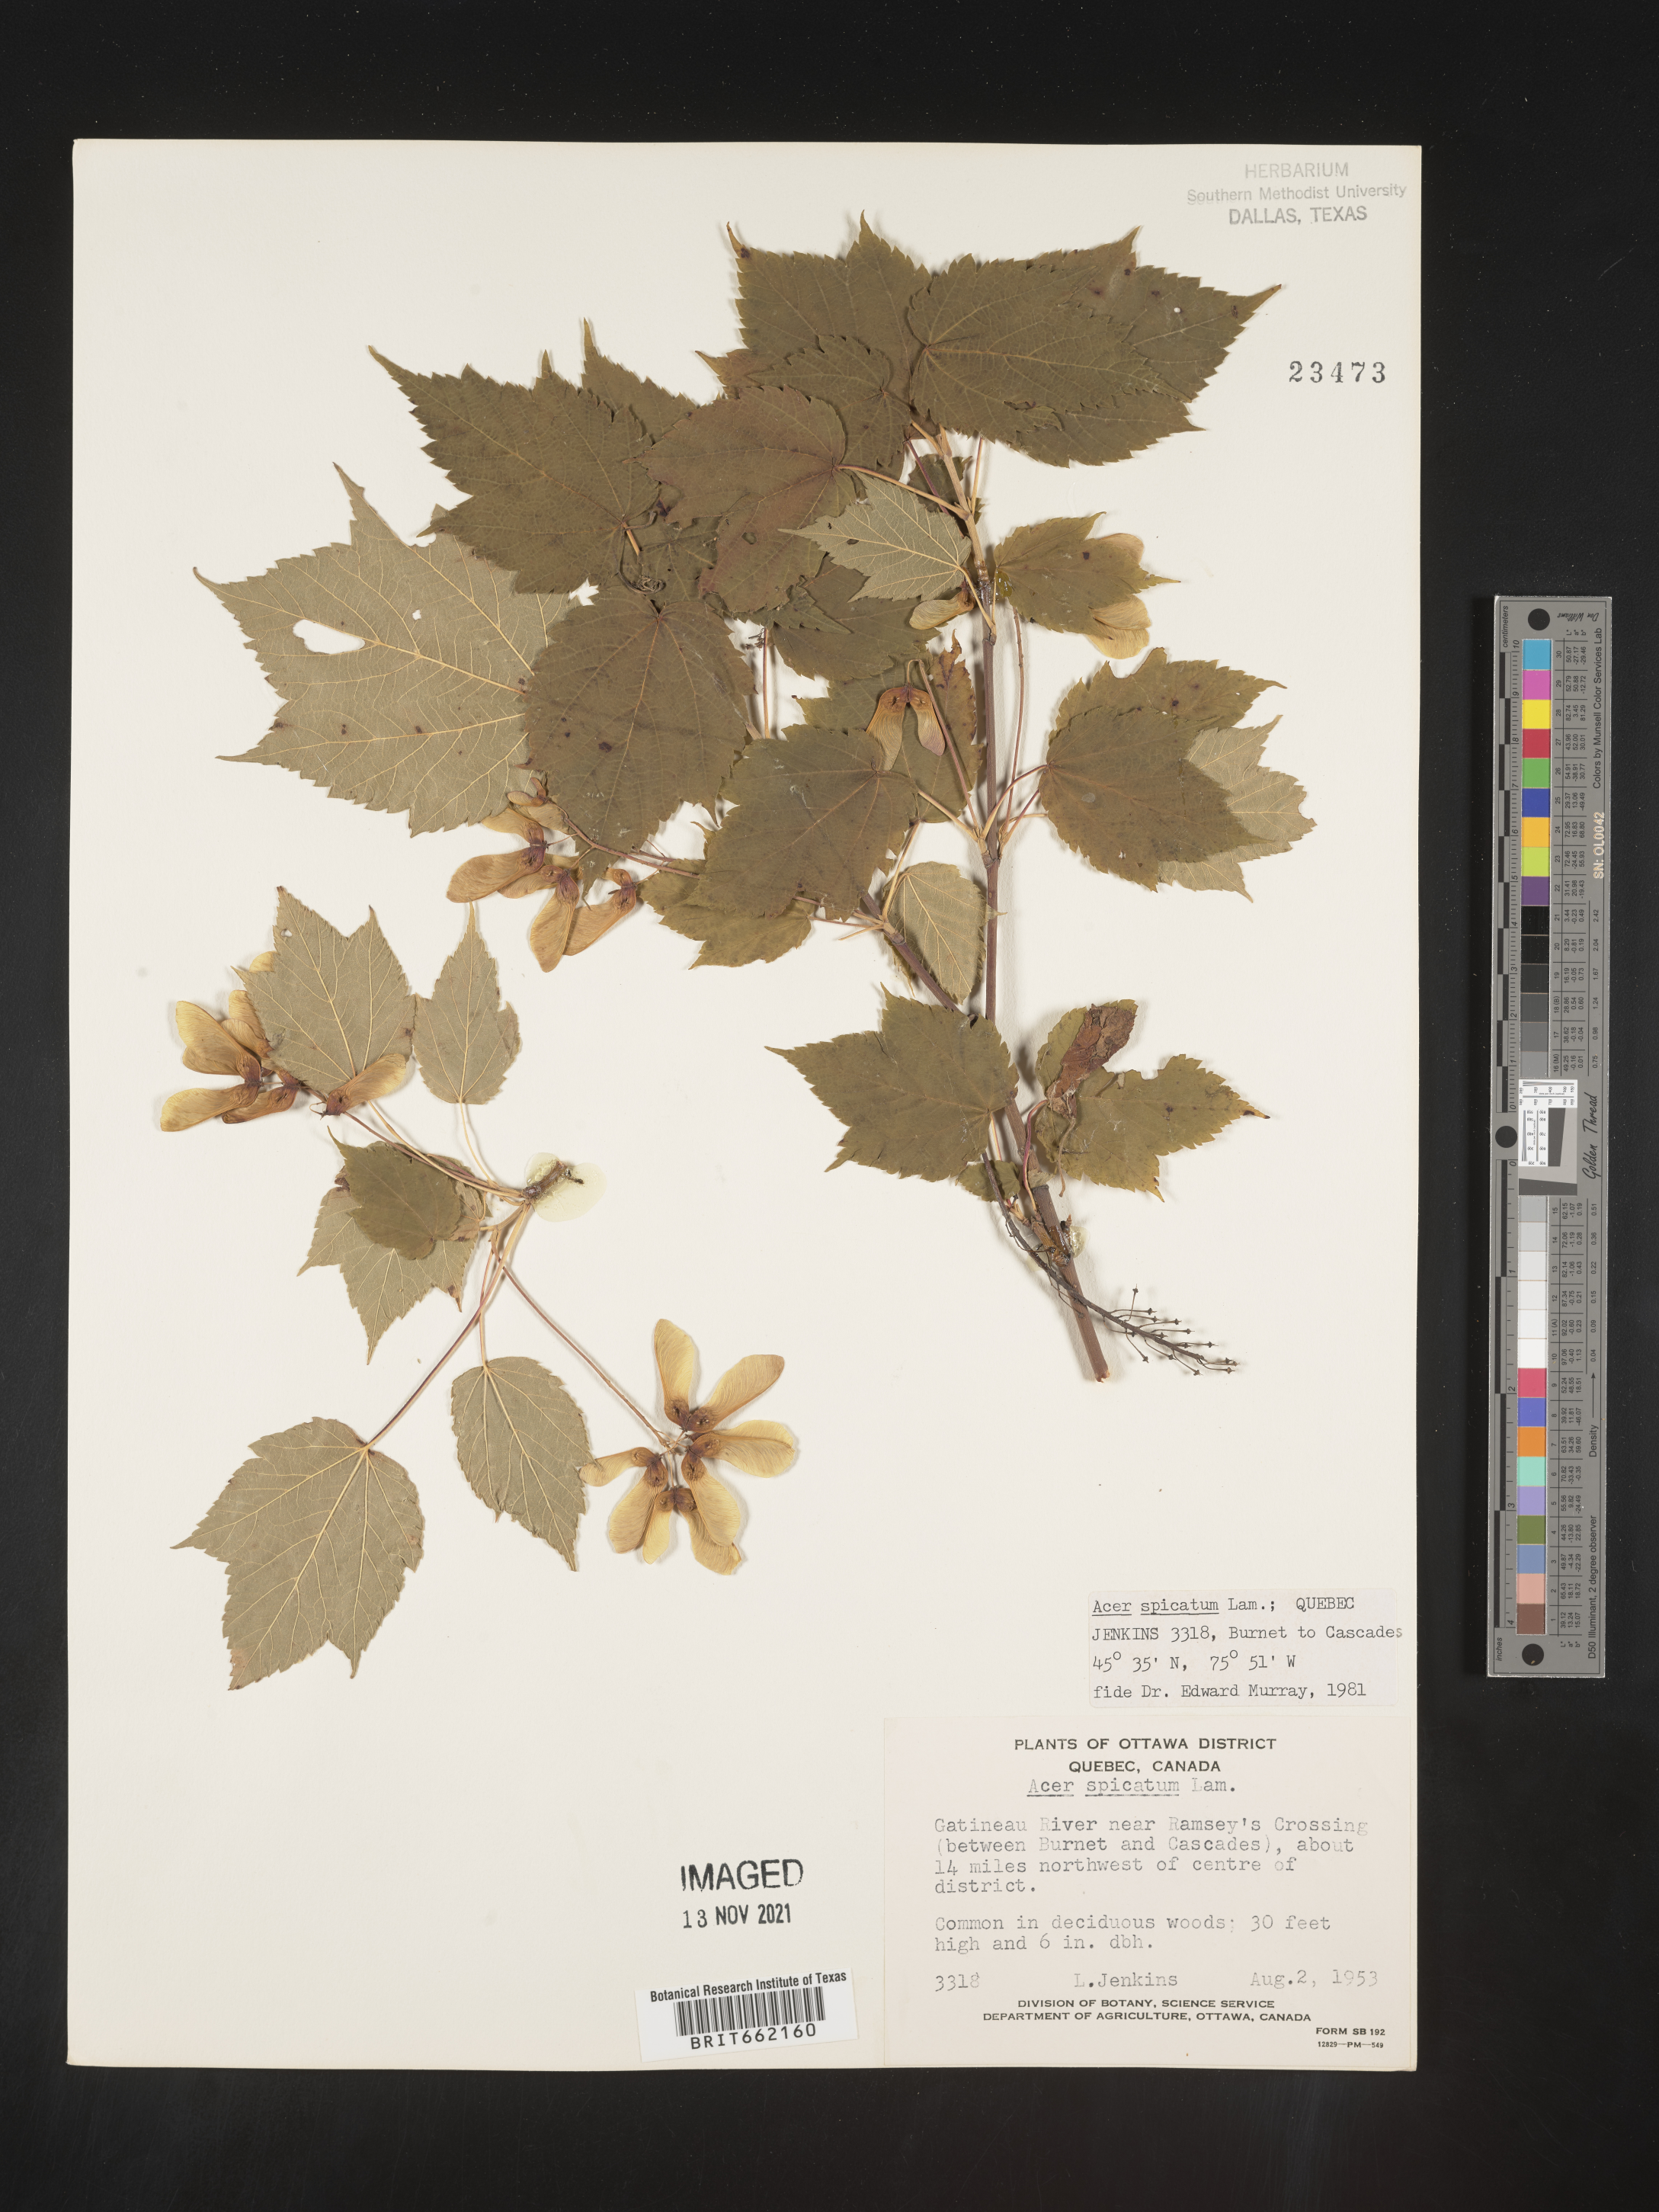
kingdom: Plantae
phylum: Tracheophyta
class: Magnoliopsida
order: Sapindales
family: Sapindaceae
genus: Acer
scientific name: Acer spicatum
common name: Mountain maple
